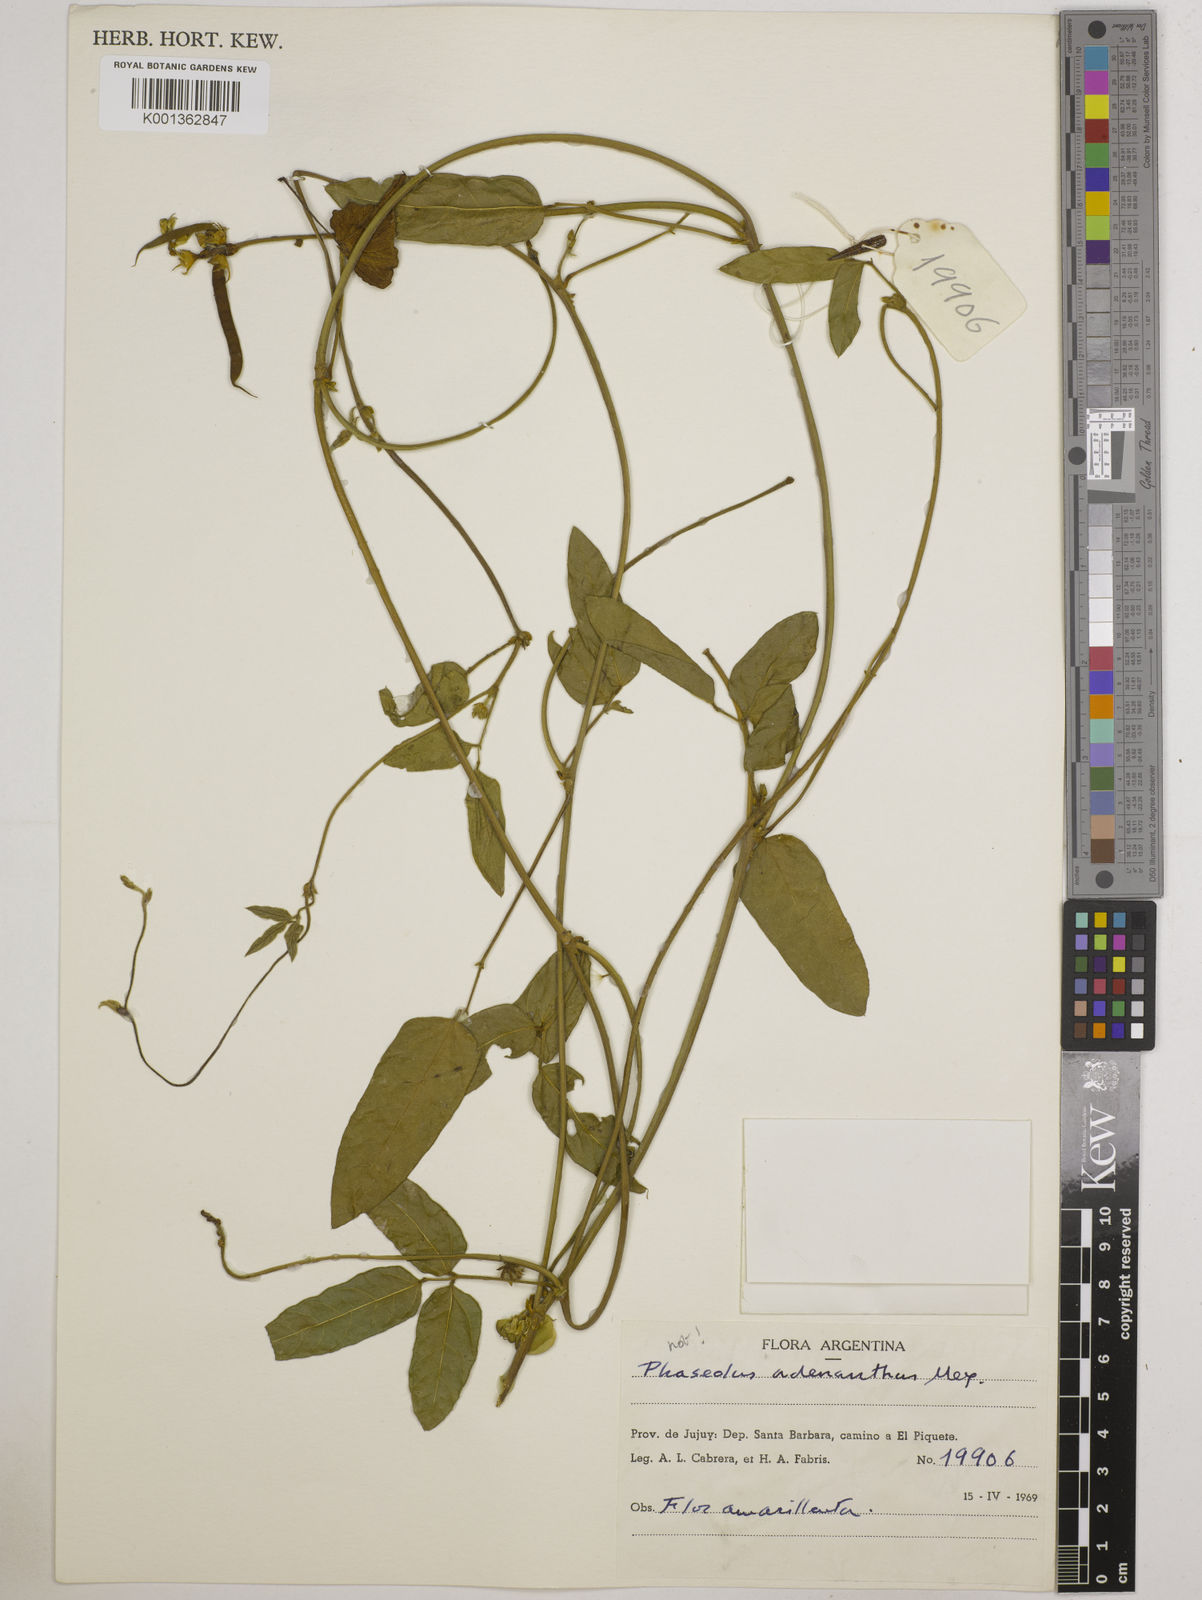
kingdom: Plantae
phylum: Tracheophyta
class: Magnoliopsida
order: Fabales
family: Fabaceae
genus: Vigna
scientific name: Vigna
